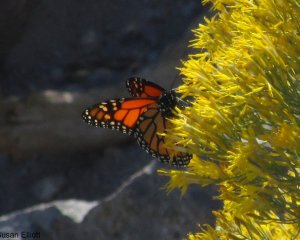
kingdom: Animalia
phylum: Arthropoda
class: Insecta
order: Lepidoptera
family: Nymphalidae
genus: Danaus
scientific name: Danaus plexippus
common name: Monarch
